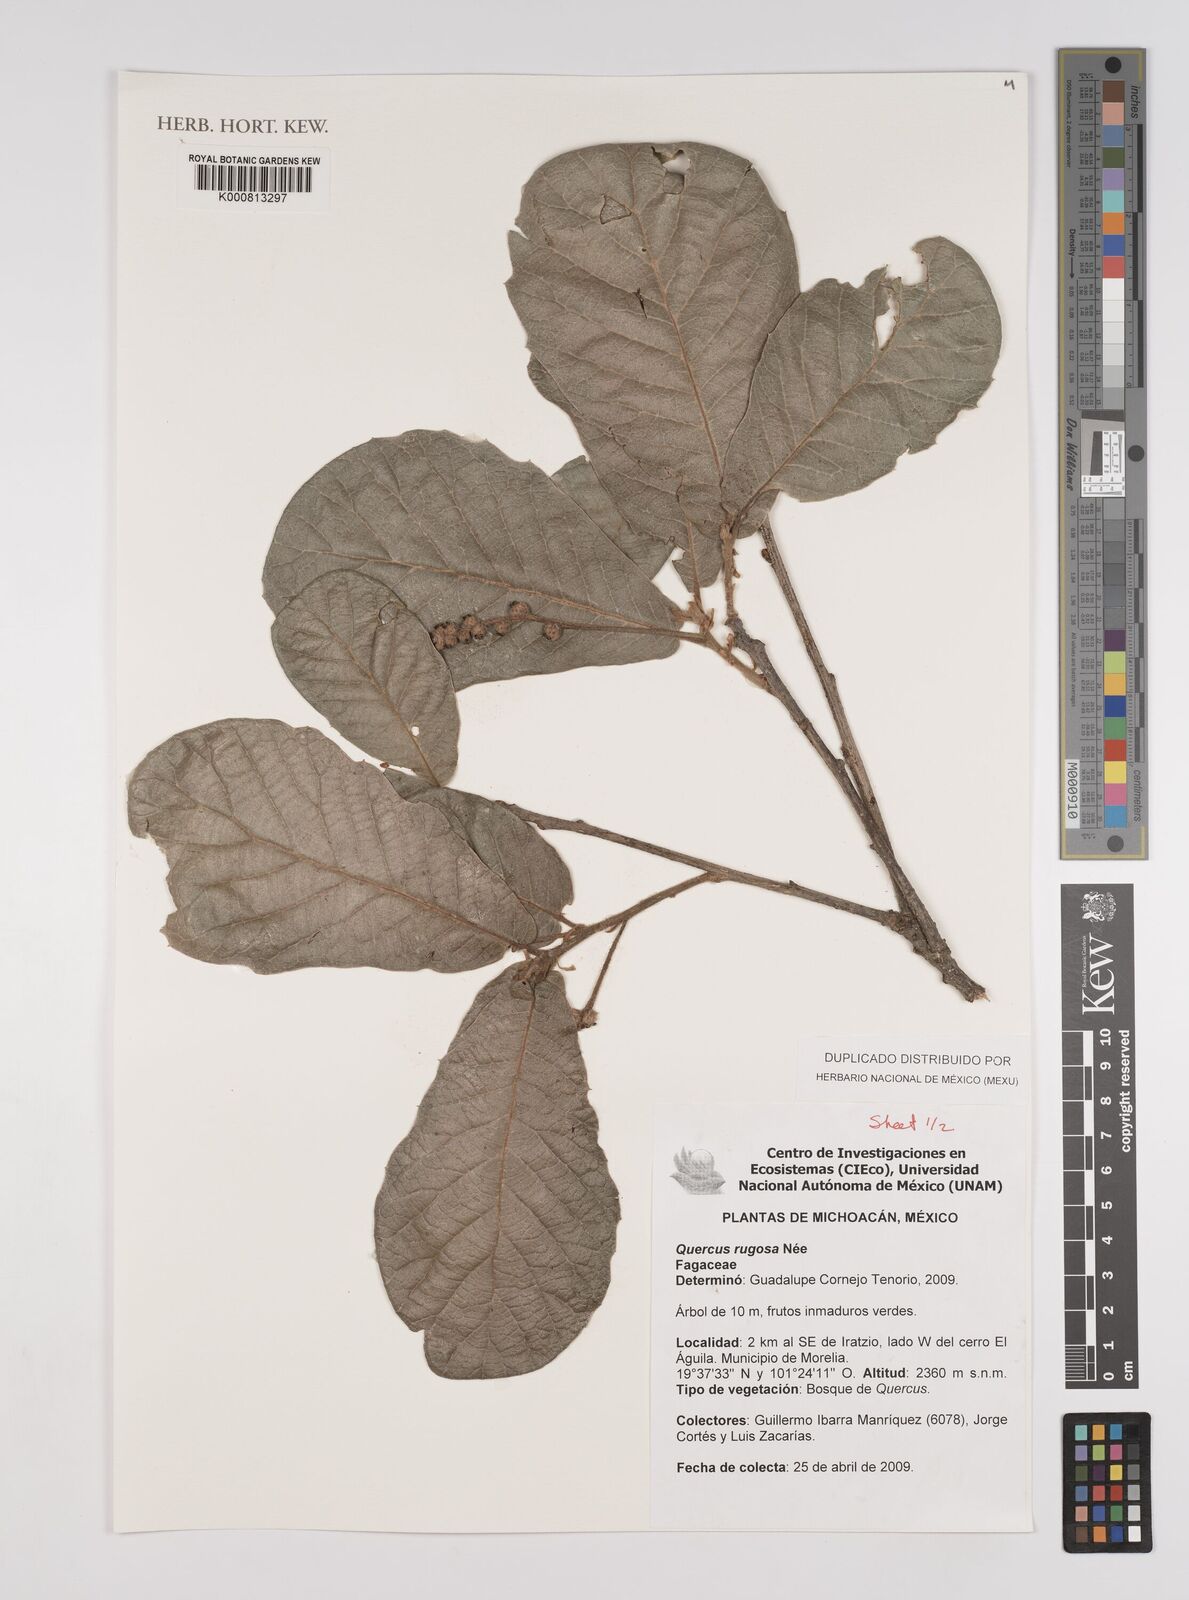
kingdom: Plantae
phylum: Tracheophyta
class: Magnoliopsida
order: Fagales
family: Fagaceae
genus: Quercus
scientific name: Quercus
